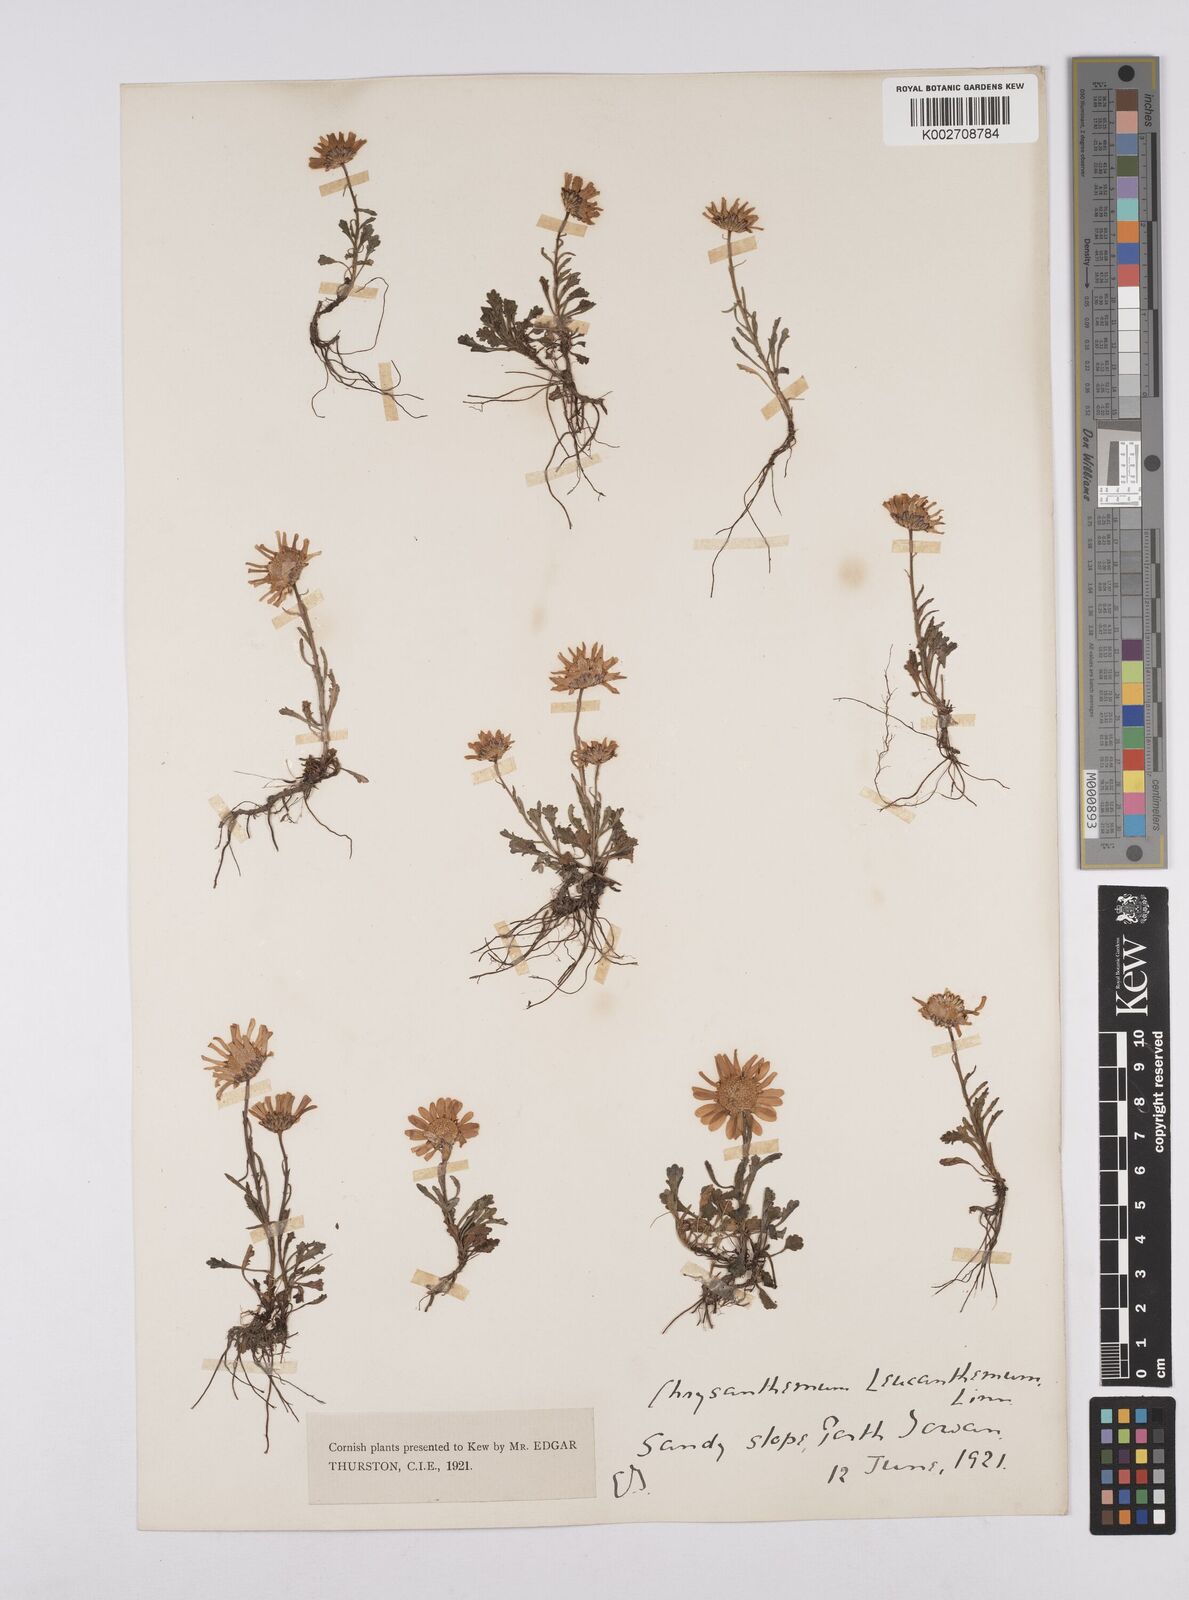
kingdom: Plantae
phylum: Tracheophyta
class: Magnoliopsida
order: Asterales
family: Asteraceae
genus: Leucanthemum
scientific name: Leucanthemum vulgare
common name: Oxeye daisy
